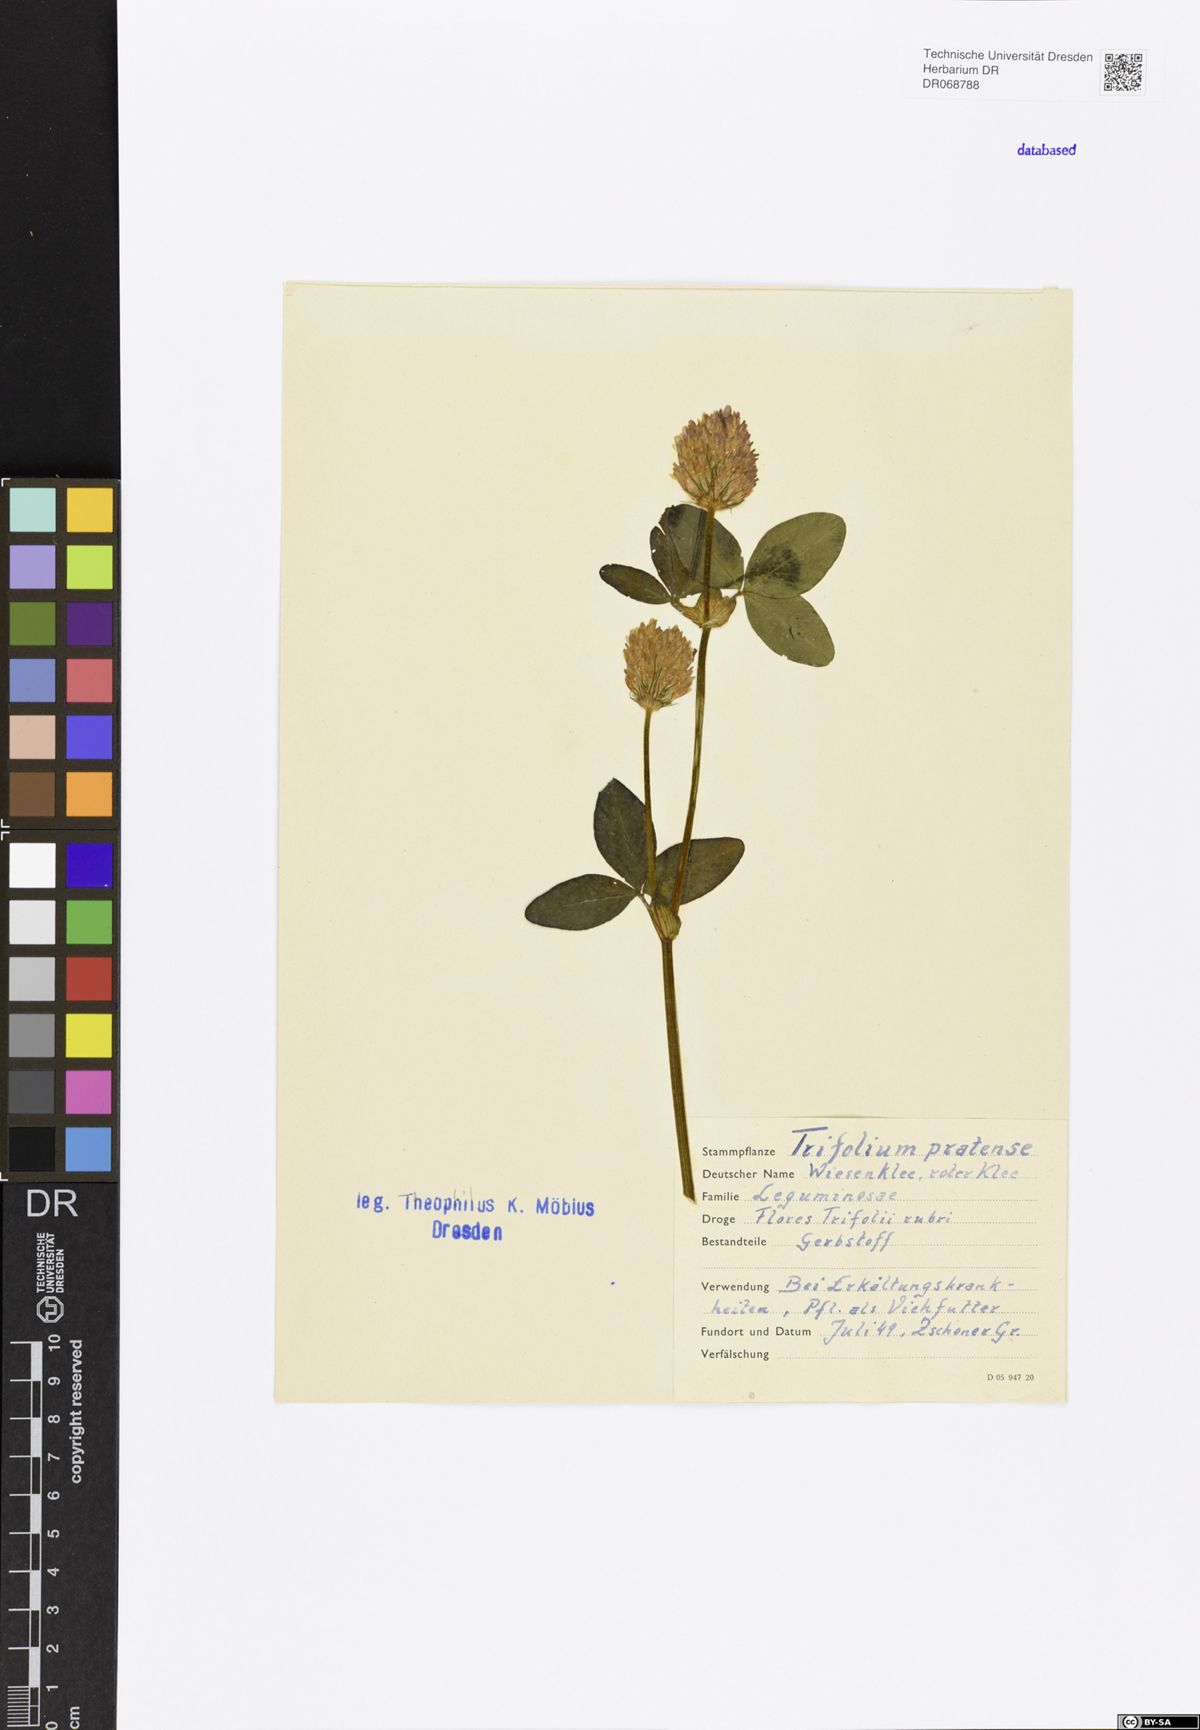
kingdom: Plantae
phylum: Tracheophyta
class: Magnoliopsida
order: Fabales
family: Fabaceae
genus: Trifolium
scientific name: Trifolium pratense
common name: Red clover
